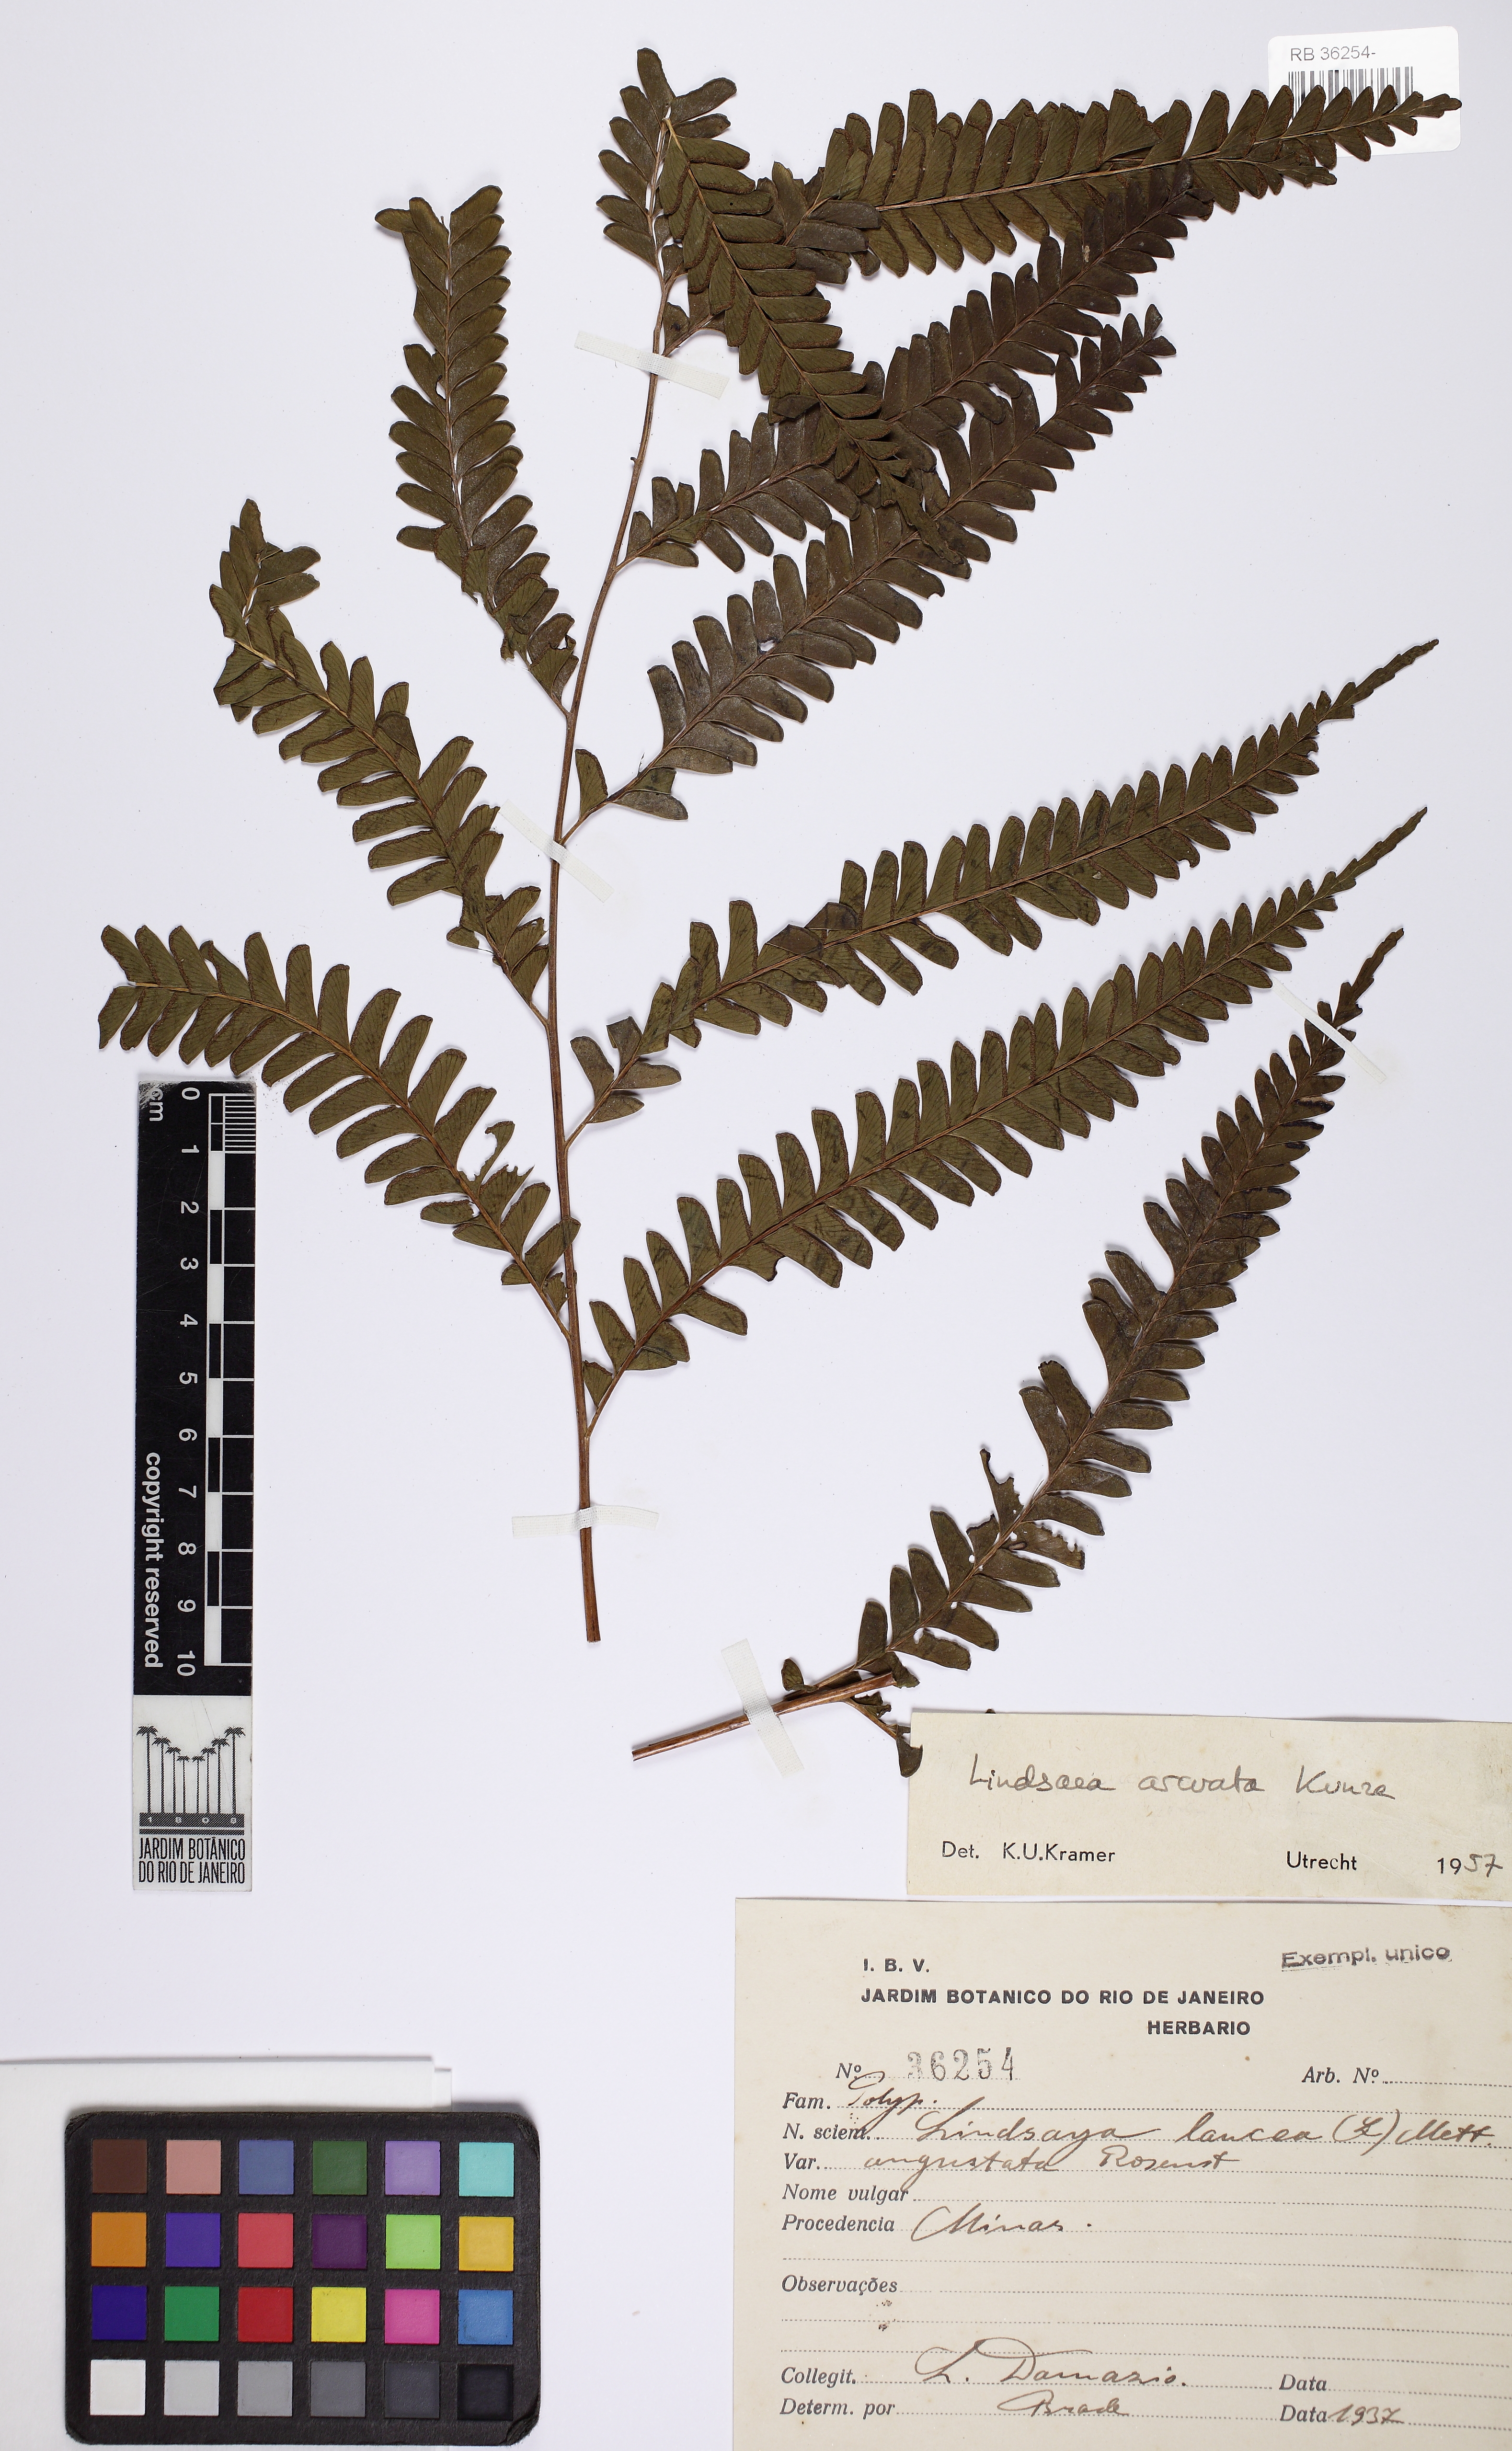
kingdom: Plantae
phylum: Tracheophyta
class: Polypodiopsida
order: Polypodiales
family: Lindsaeaceae
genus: Lindsaea
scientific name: Lindsaea arcuata
